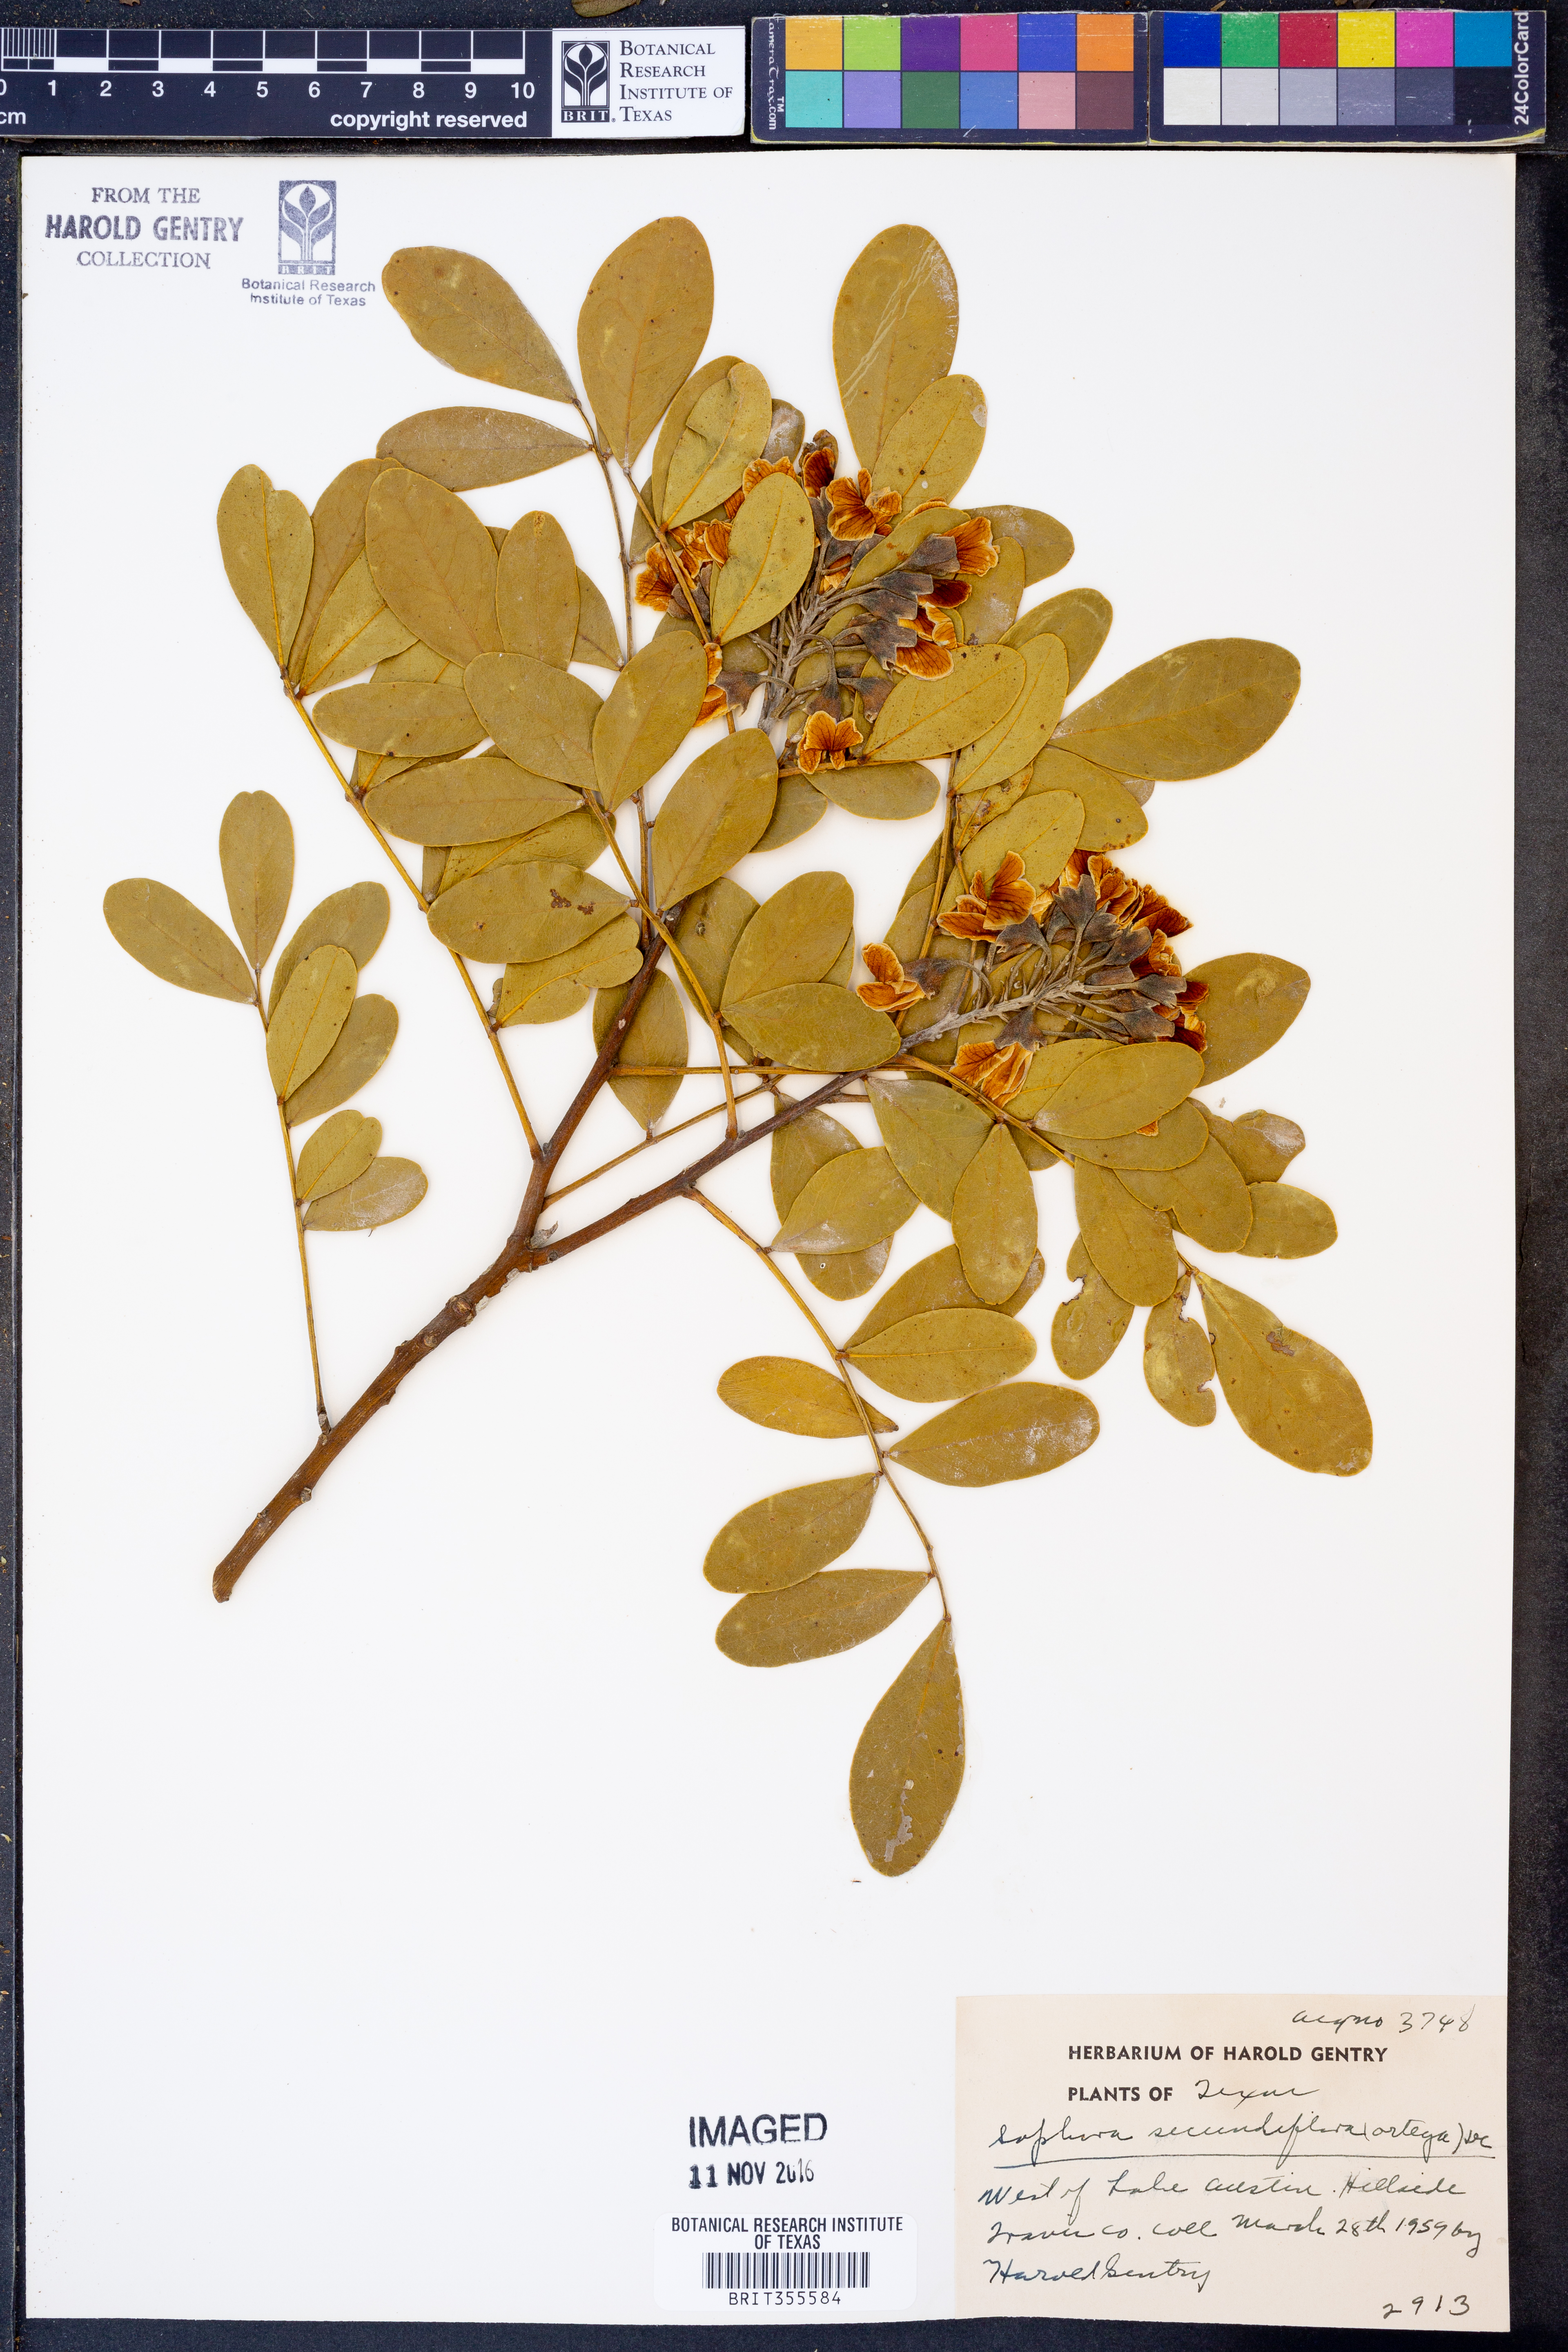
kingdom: Plantae
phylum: Tracheophyta
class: Magnoliopsida
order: Fabales
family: Fabaceae
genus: Dermatophyllum
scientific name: Dermatophyllum secundiflorum
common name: Texas-mountain-laurel
